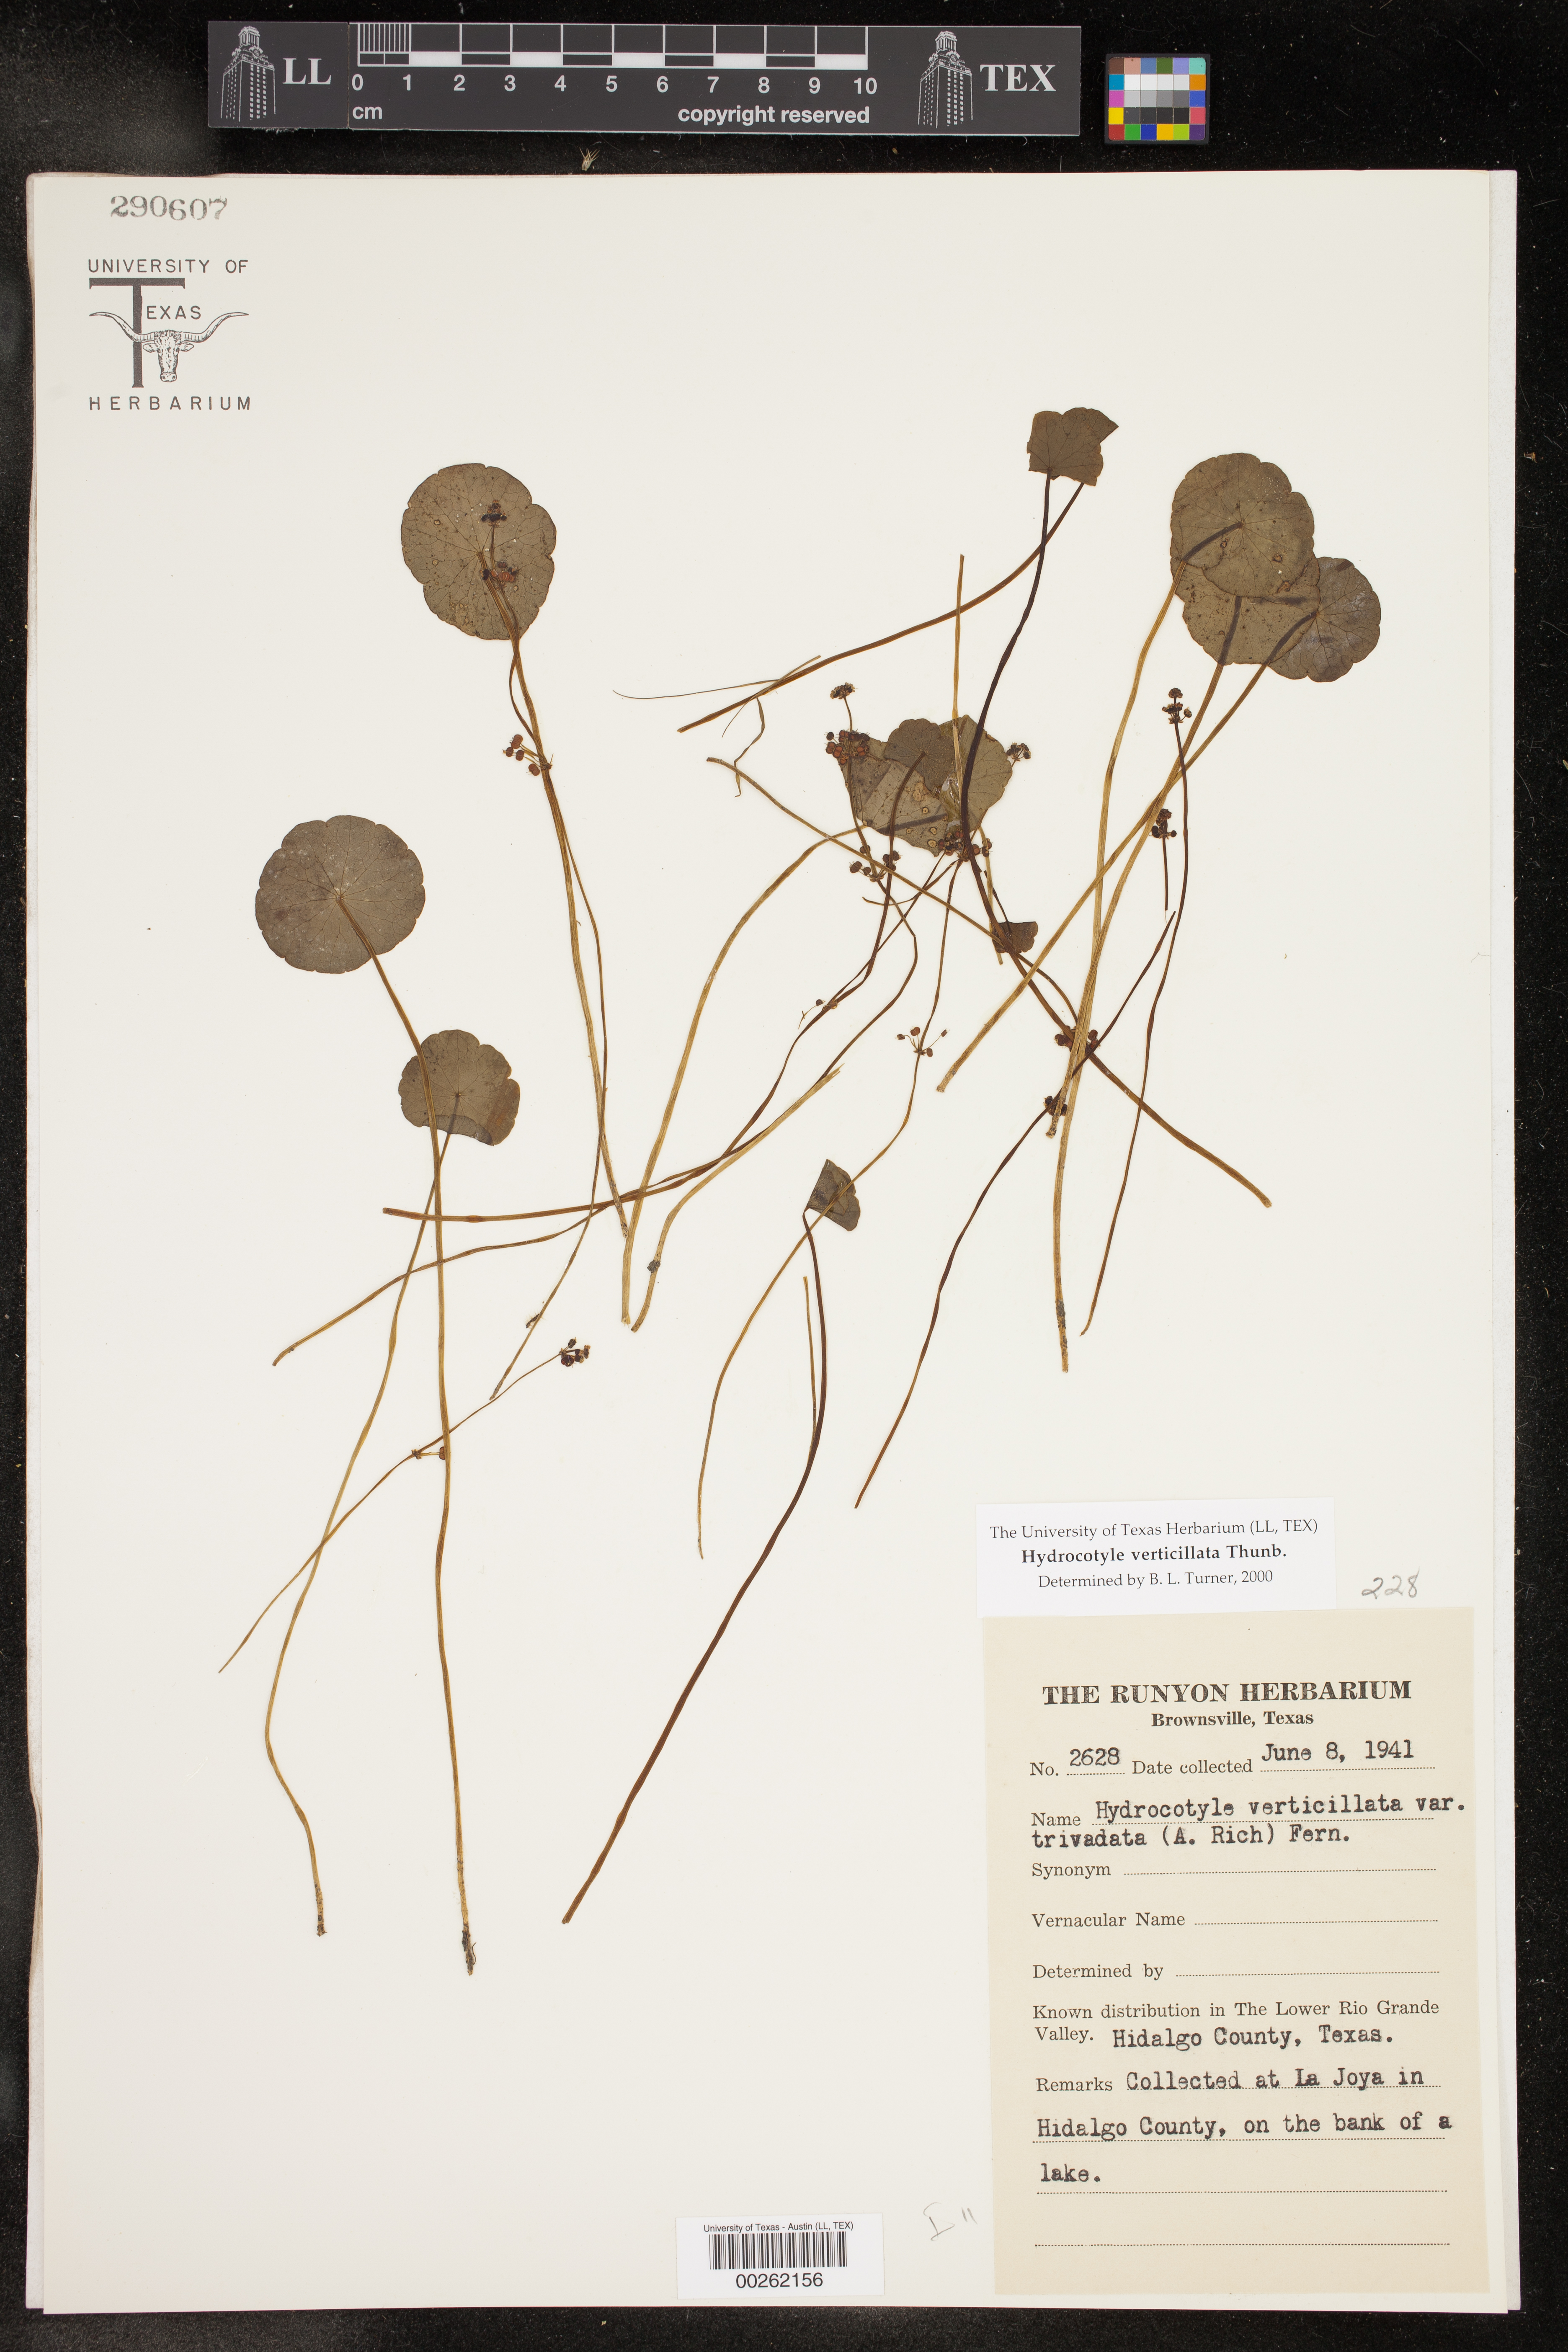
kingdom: Plantae
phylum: Tracheophyta
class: Magnoliopsida
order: Apiales
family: Araliaceae
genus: Hydrocotyle
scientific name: Hydrocotyle verticillata
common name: Whorled marshpennywort
